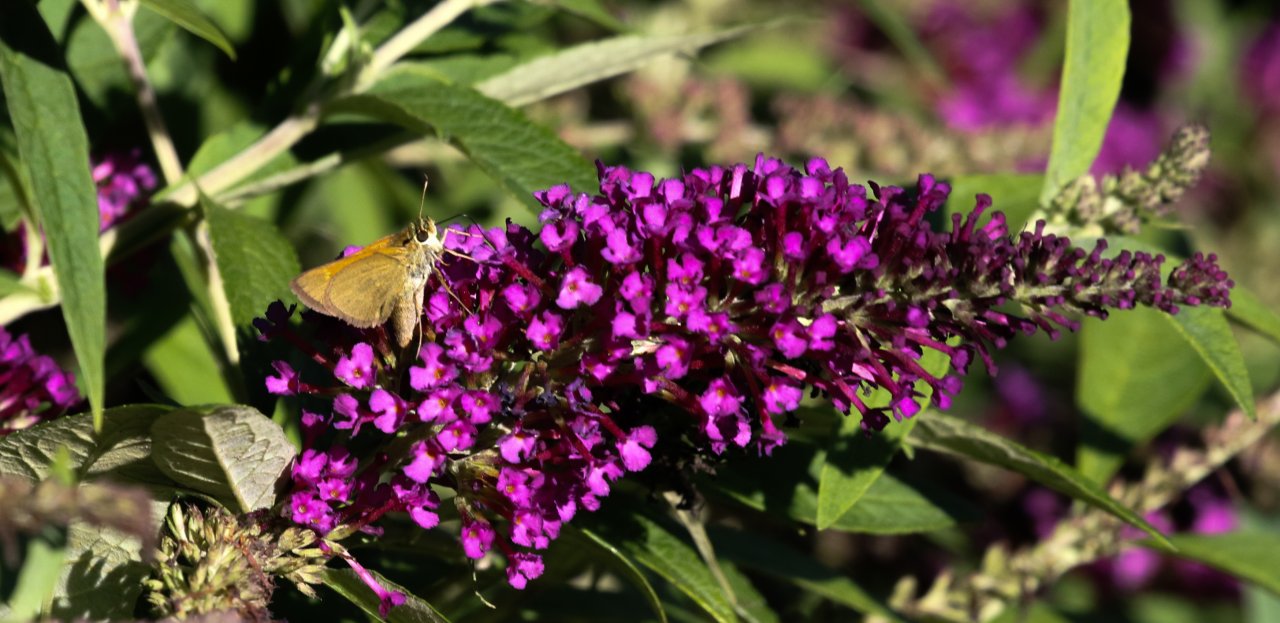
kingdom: Animalia
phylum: Arthropoda
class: Insecta
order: Lepidoptera
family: Hesperiidae
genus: Polites
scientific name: Polites themistocles
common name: Tawny-edged Skipper
